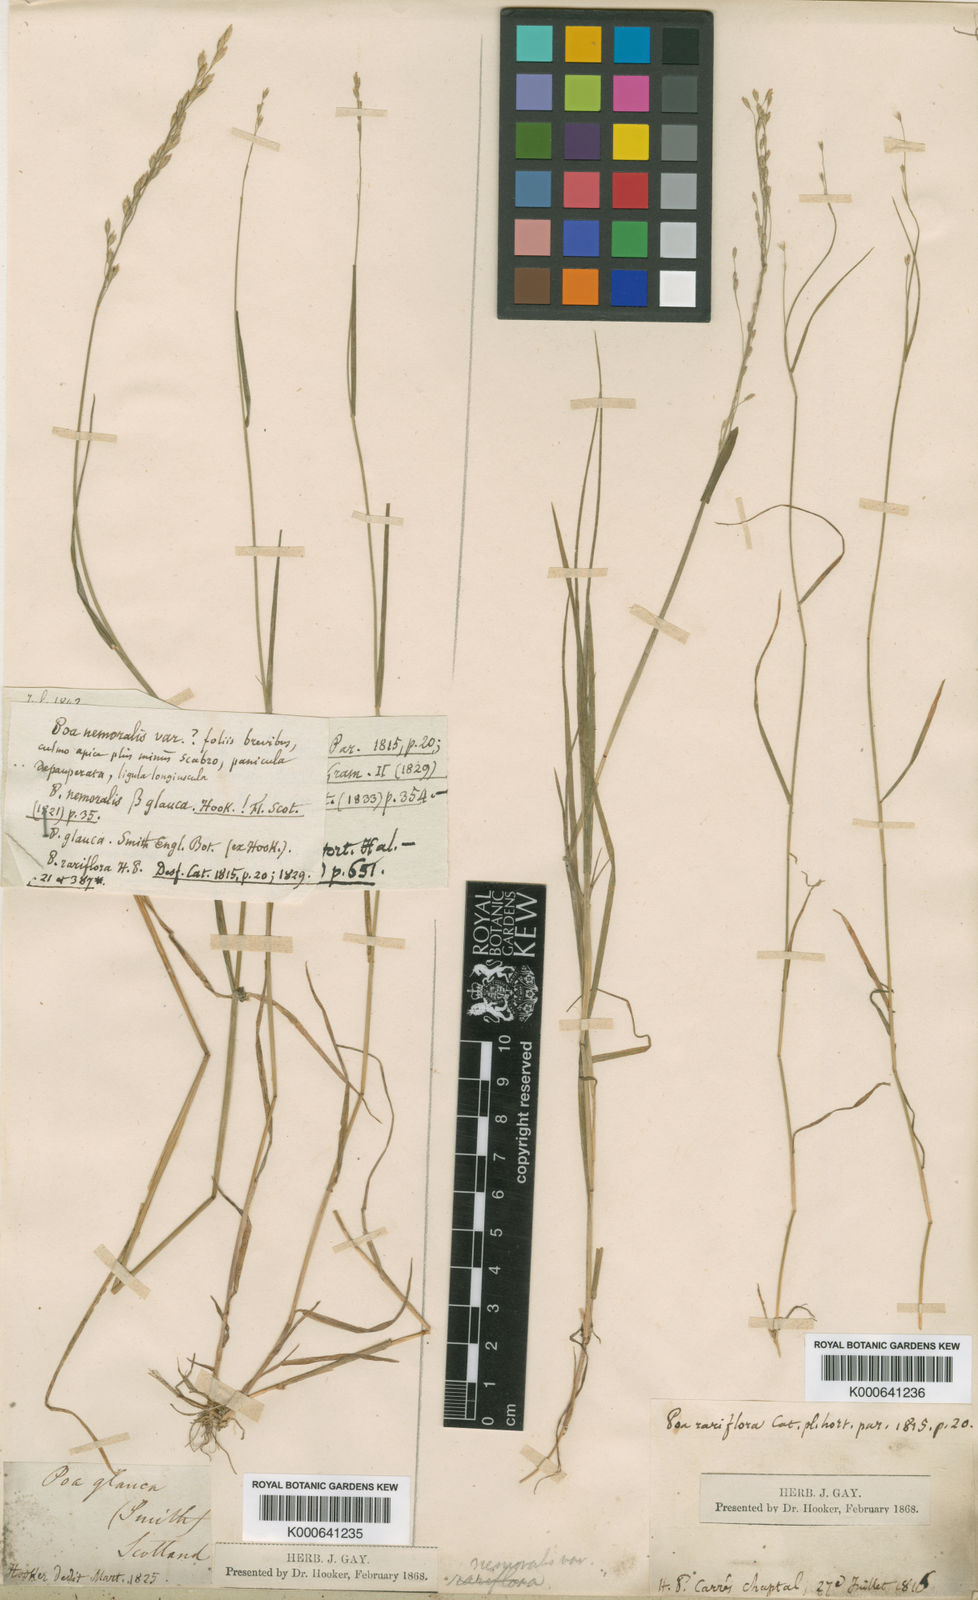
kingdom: Plantae
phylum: Tracheophyta
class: Liliopsida
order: Poales
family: Poaceae
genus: Poa
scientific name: Poa nemoralis
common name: Wood bluegrass
